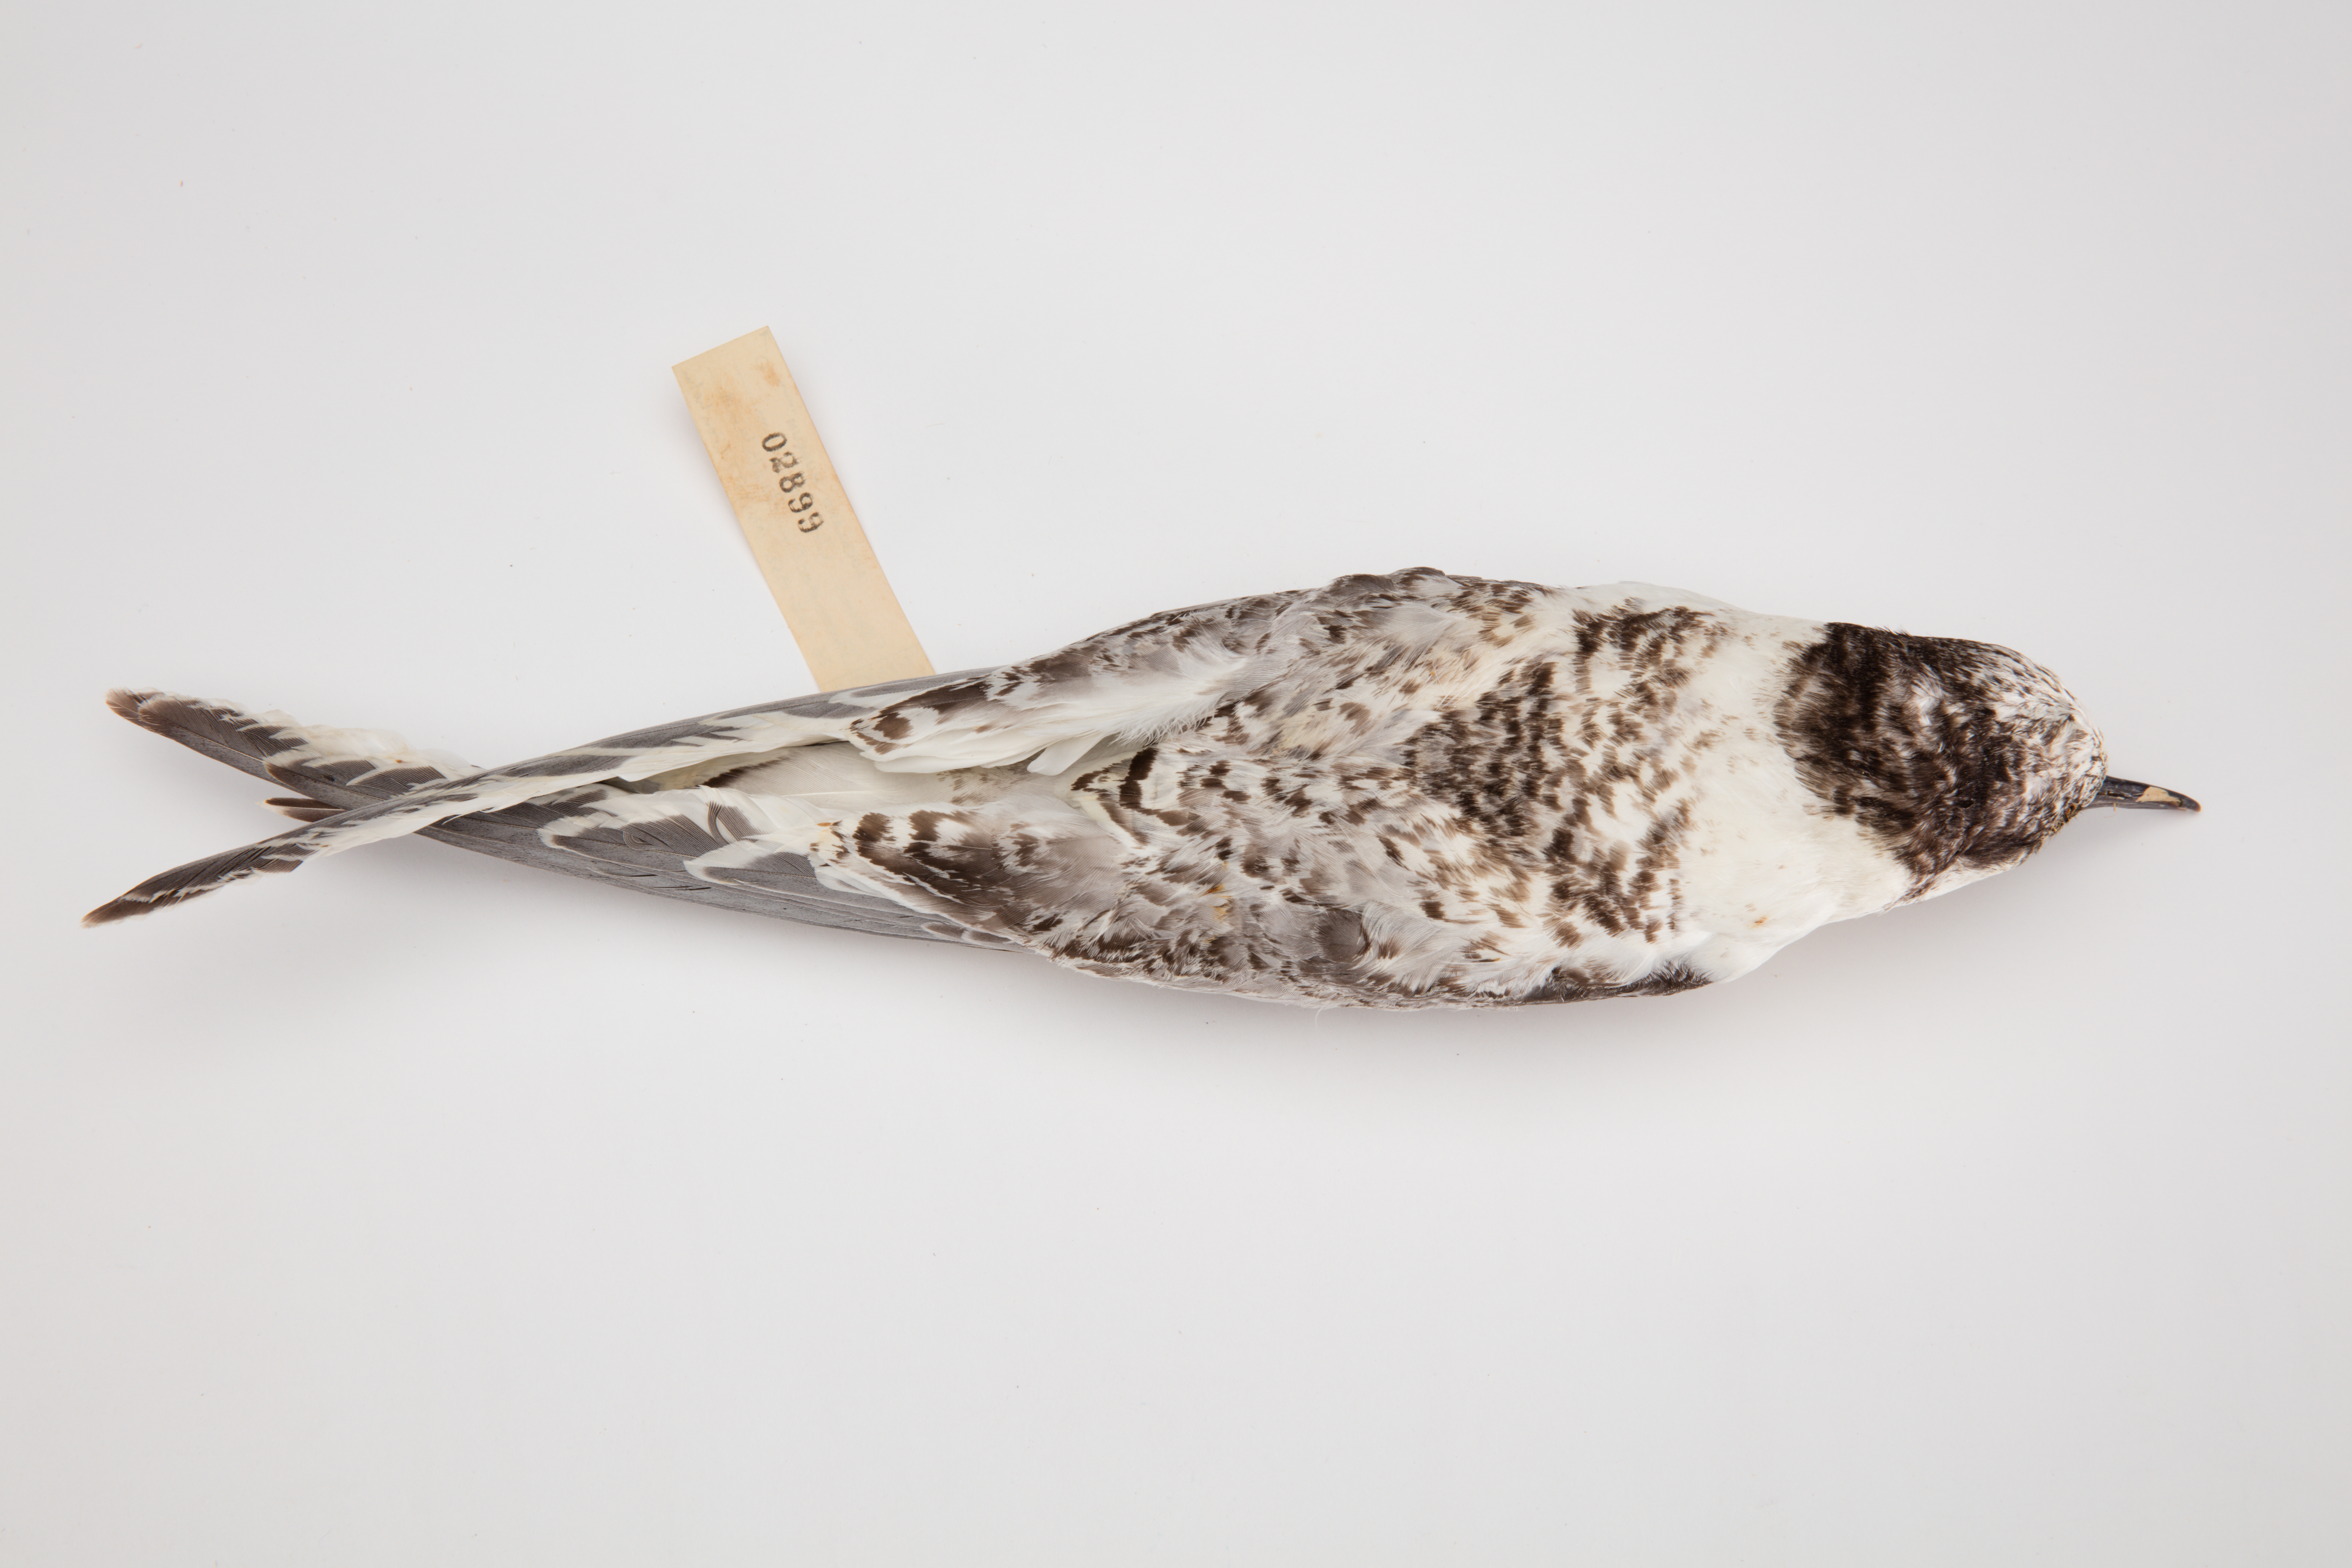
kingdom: Animalia
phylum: Chordata
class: Aves
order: Charadriiformes
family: Laridae
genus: Sterna
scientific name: Sterna striata
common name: White-fronted tern
